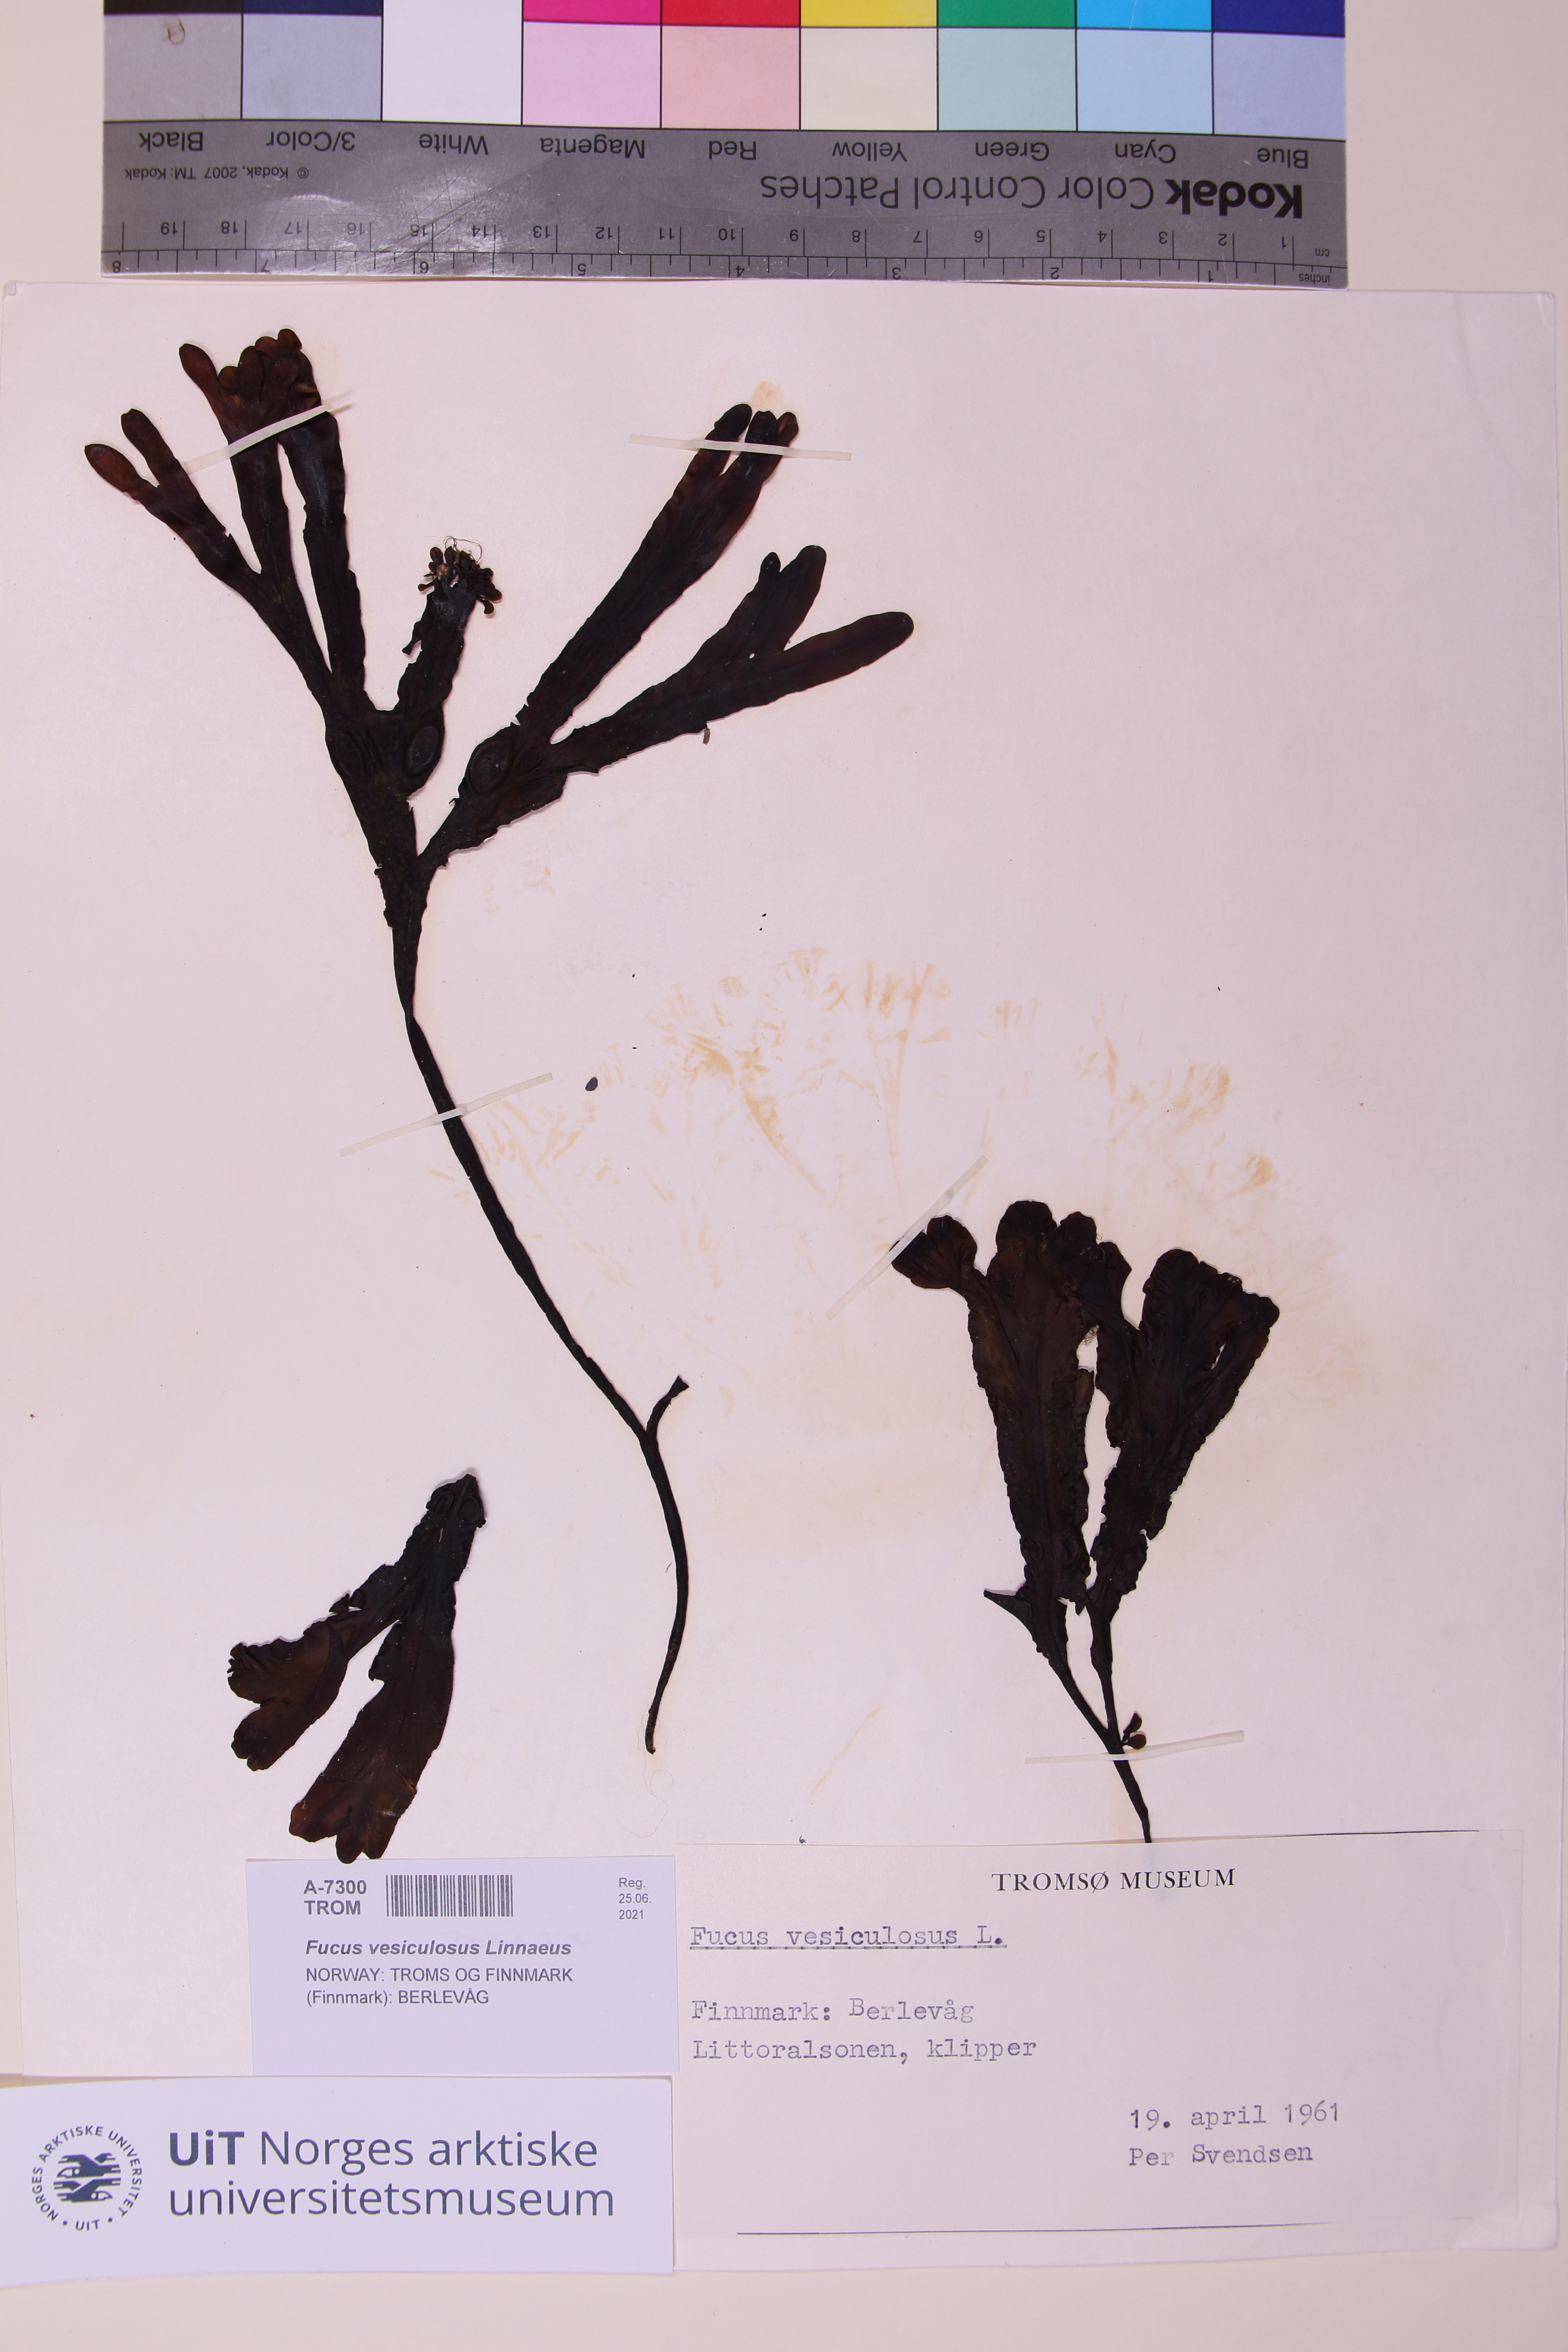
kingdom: Chromista
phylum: Ochrophyta
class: Phaeophyceae
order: Fucales
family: Fucaceae
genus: Fucus
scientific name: Fucus vesiculosus
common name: Bladder wrack
